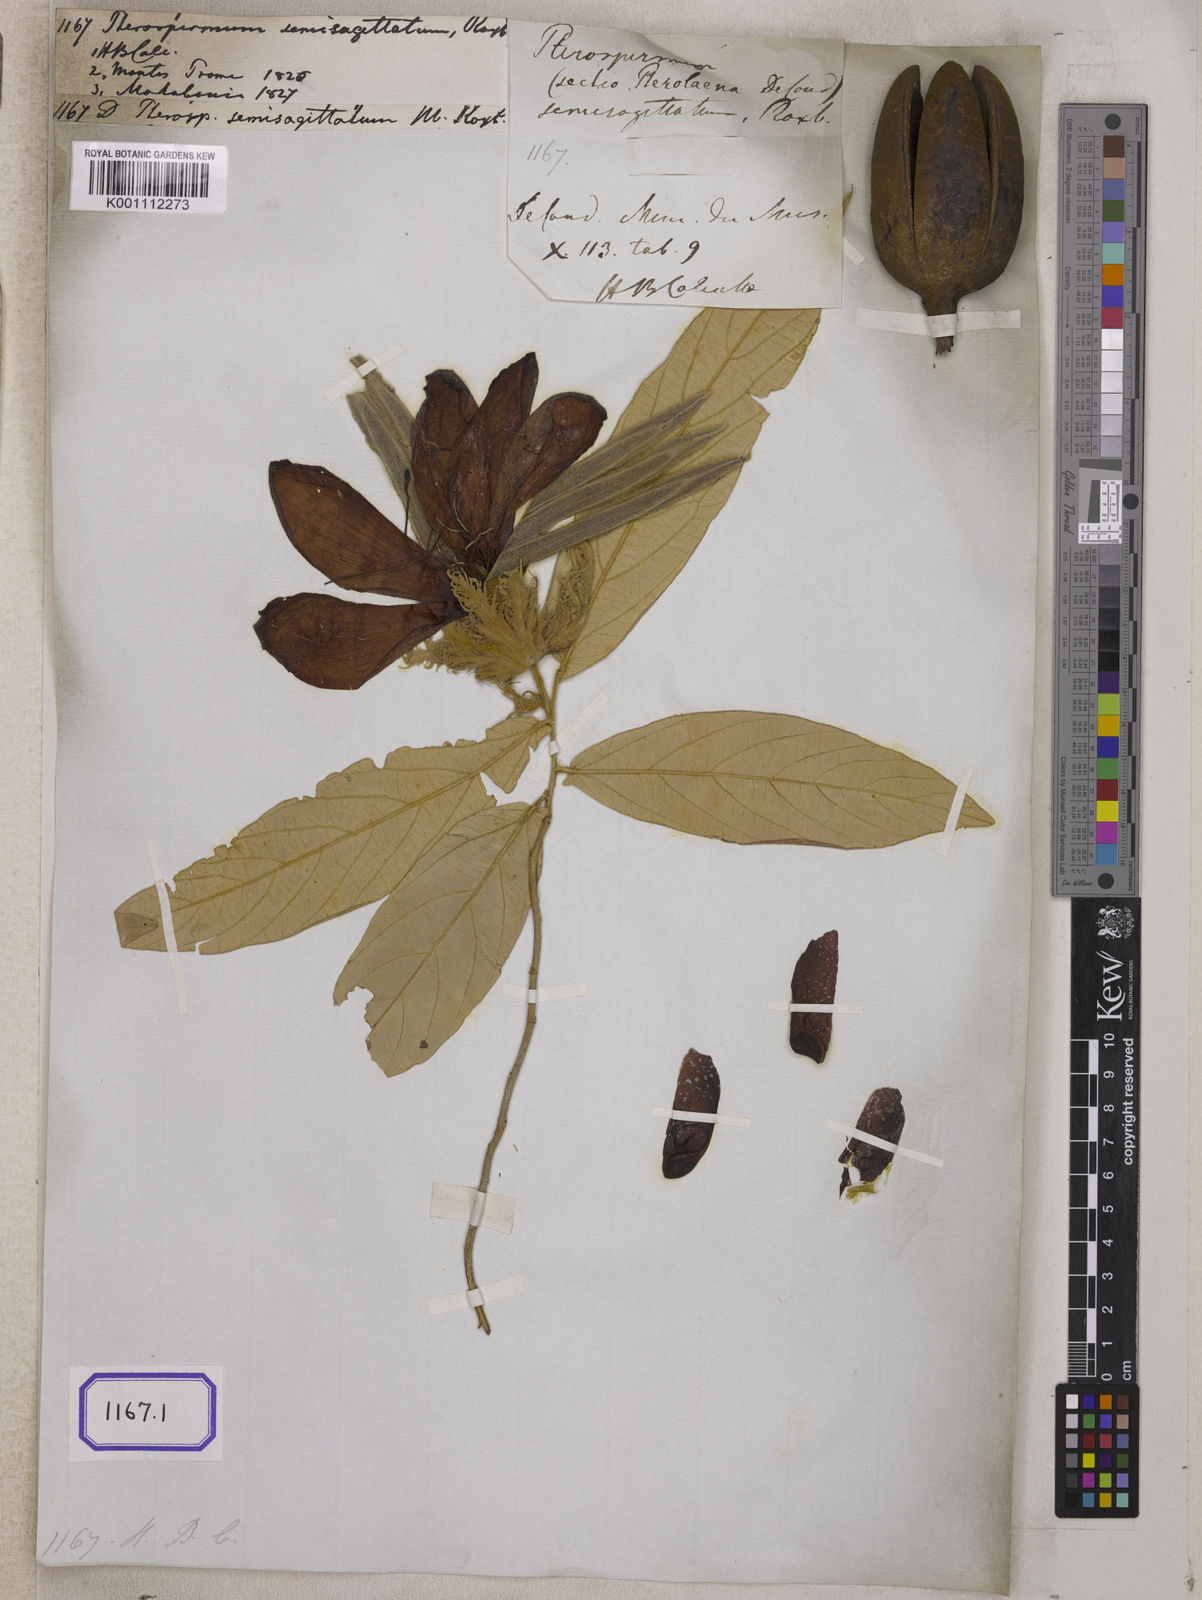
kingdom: Plantae
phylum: Tracheophyta
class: Magnoliopsida
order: Malvales
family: Malvaceae
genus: Pterospermum
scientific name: Pterospermum semisagittatum
